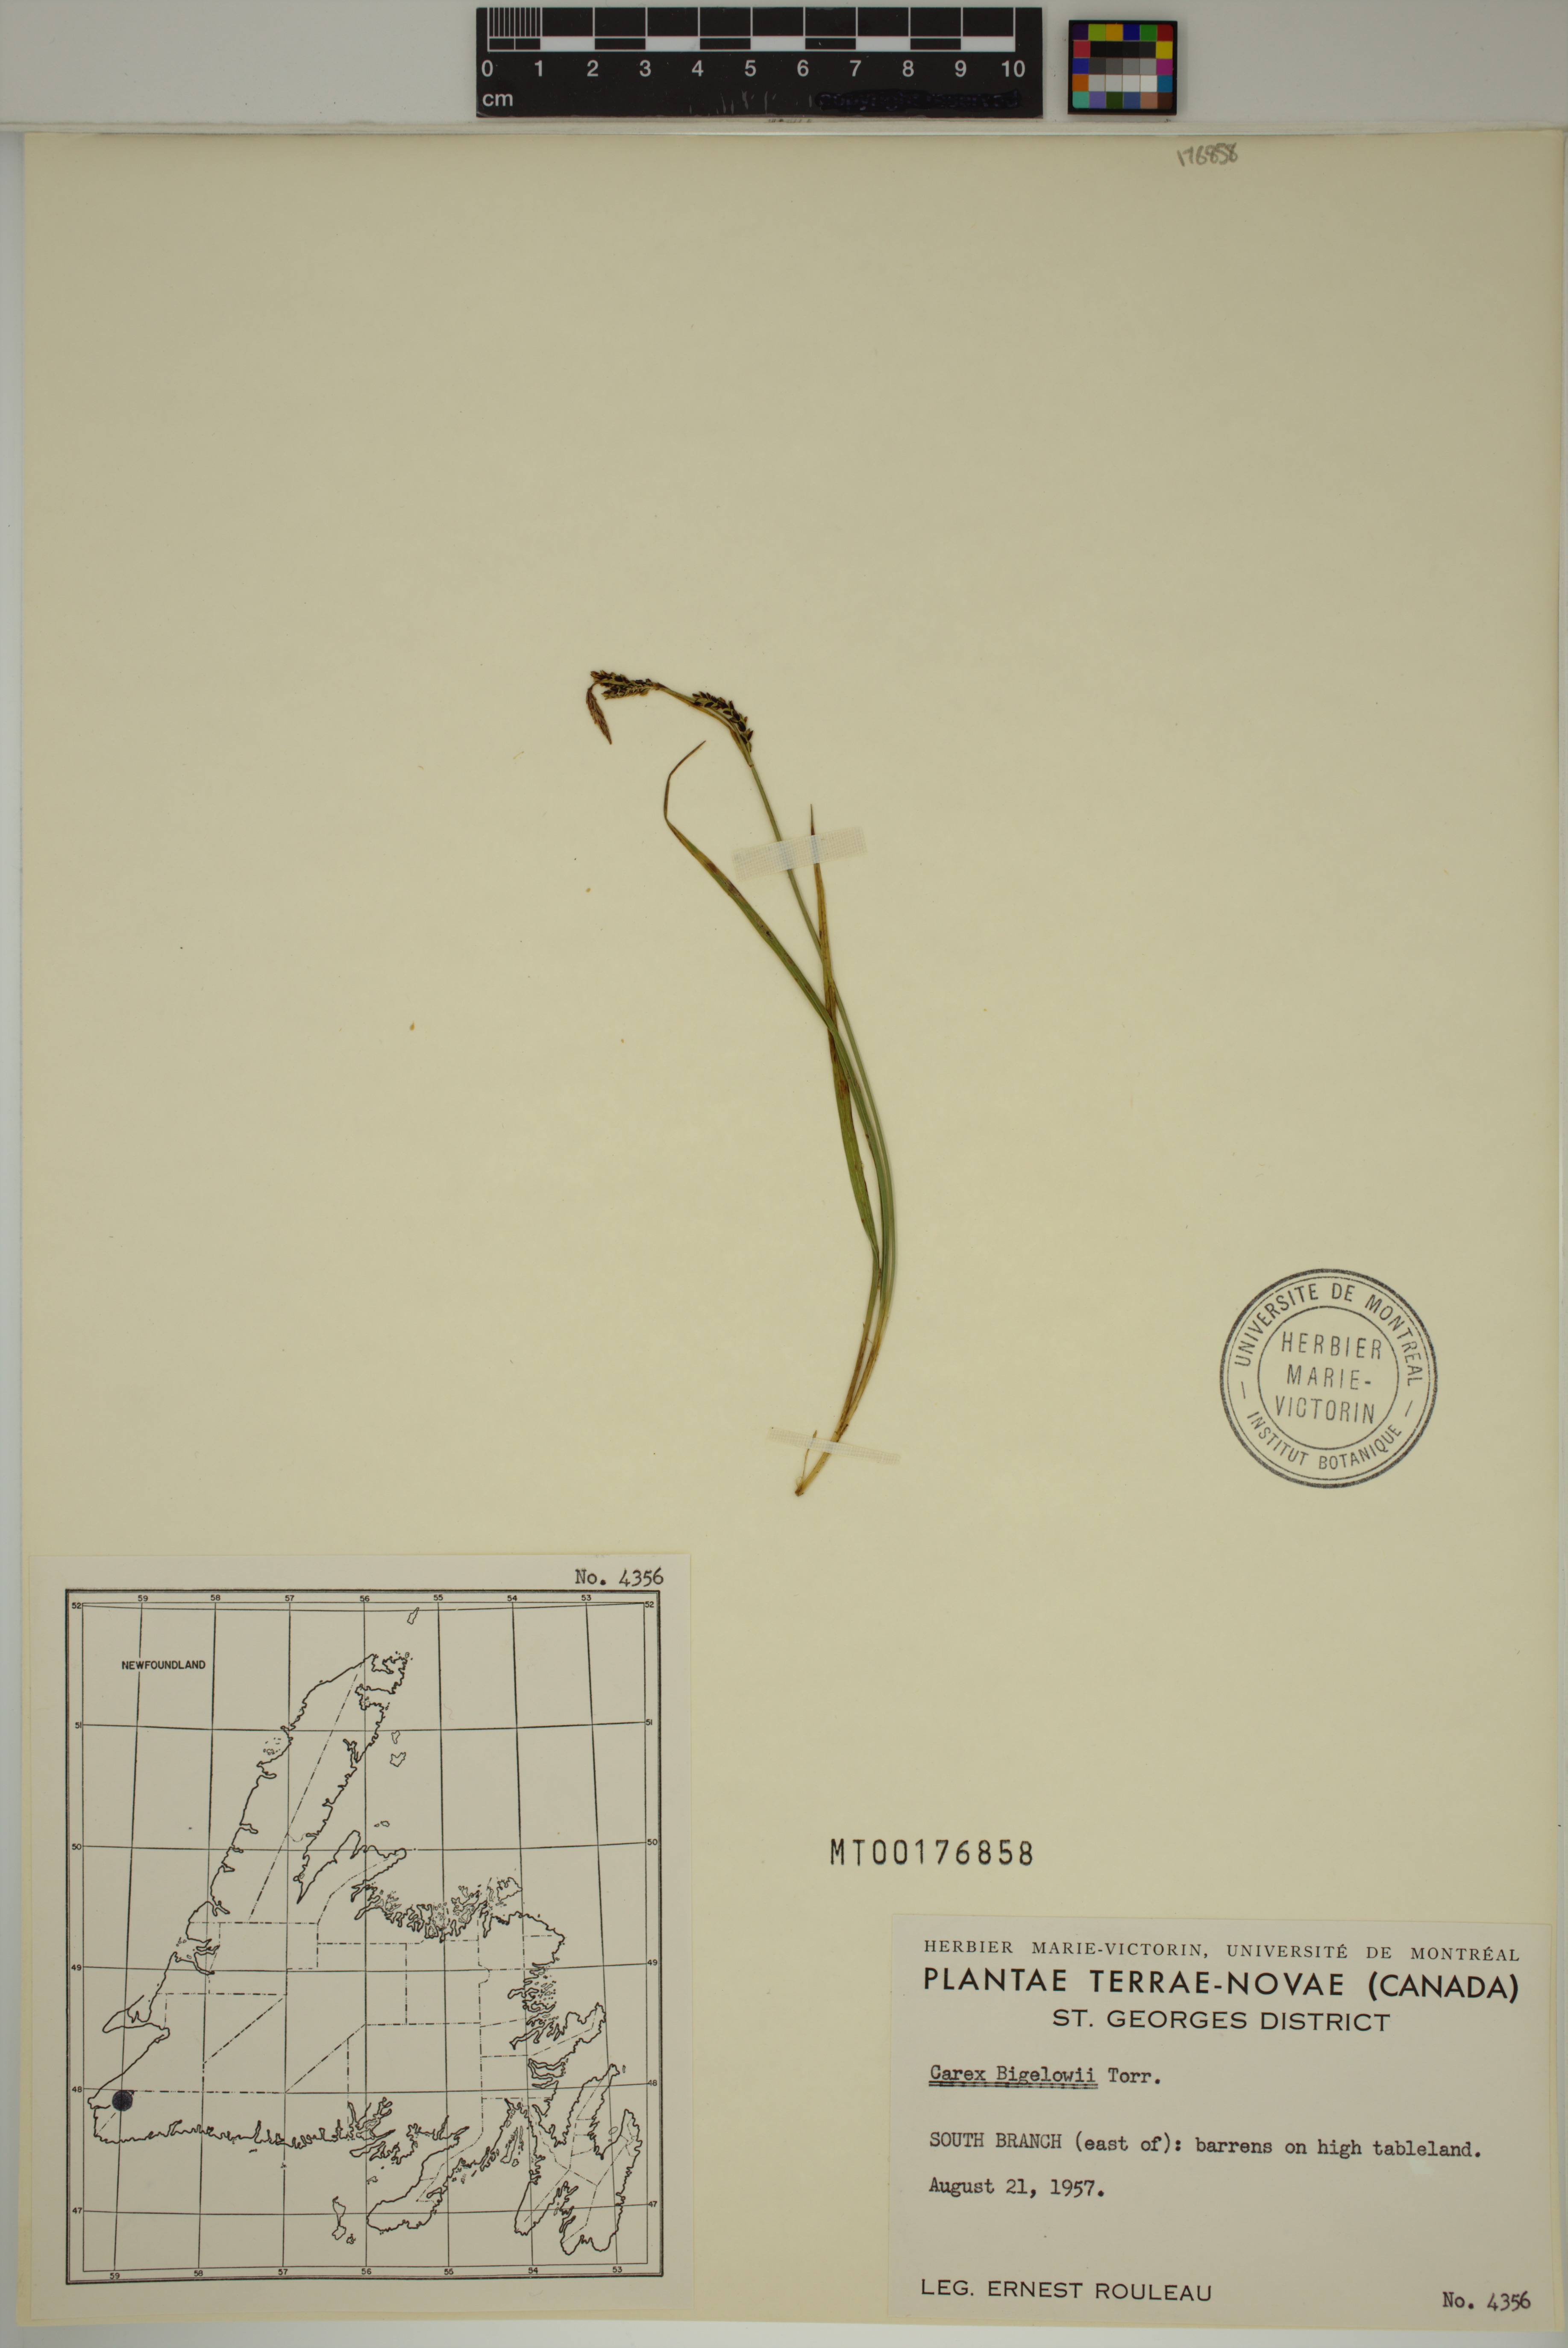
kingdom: Plantae
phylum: Tracheophyta
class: Liliopsida
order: Poales
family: Cyperaceae
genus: Carex
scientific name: Carex bigelowii
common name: Stiff sedge
